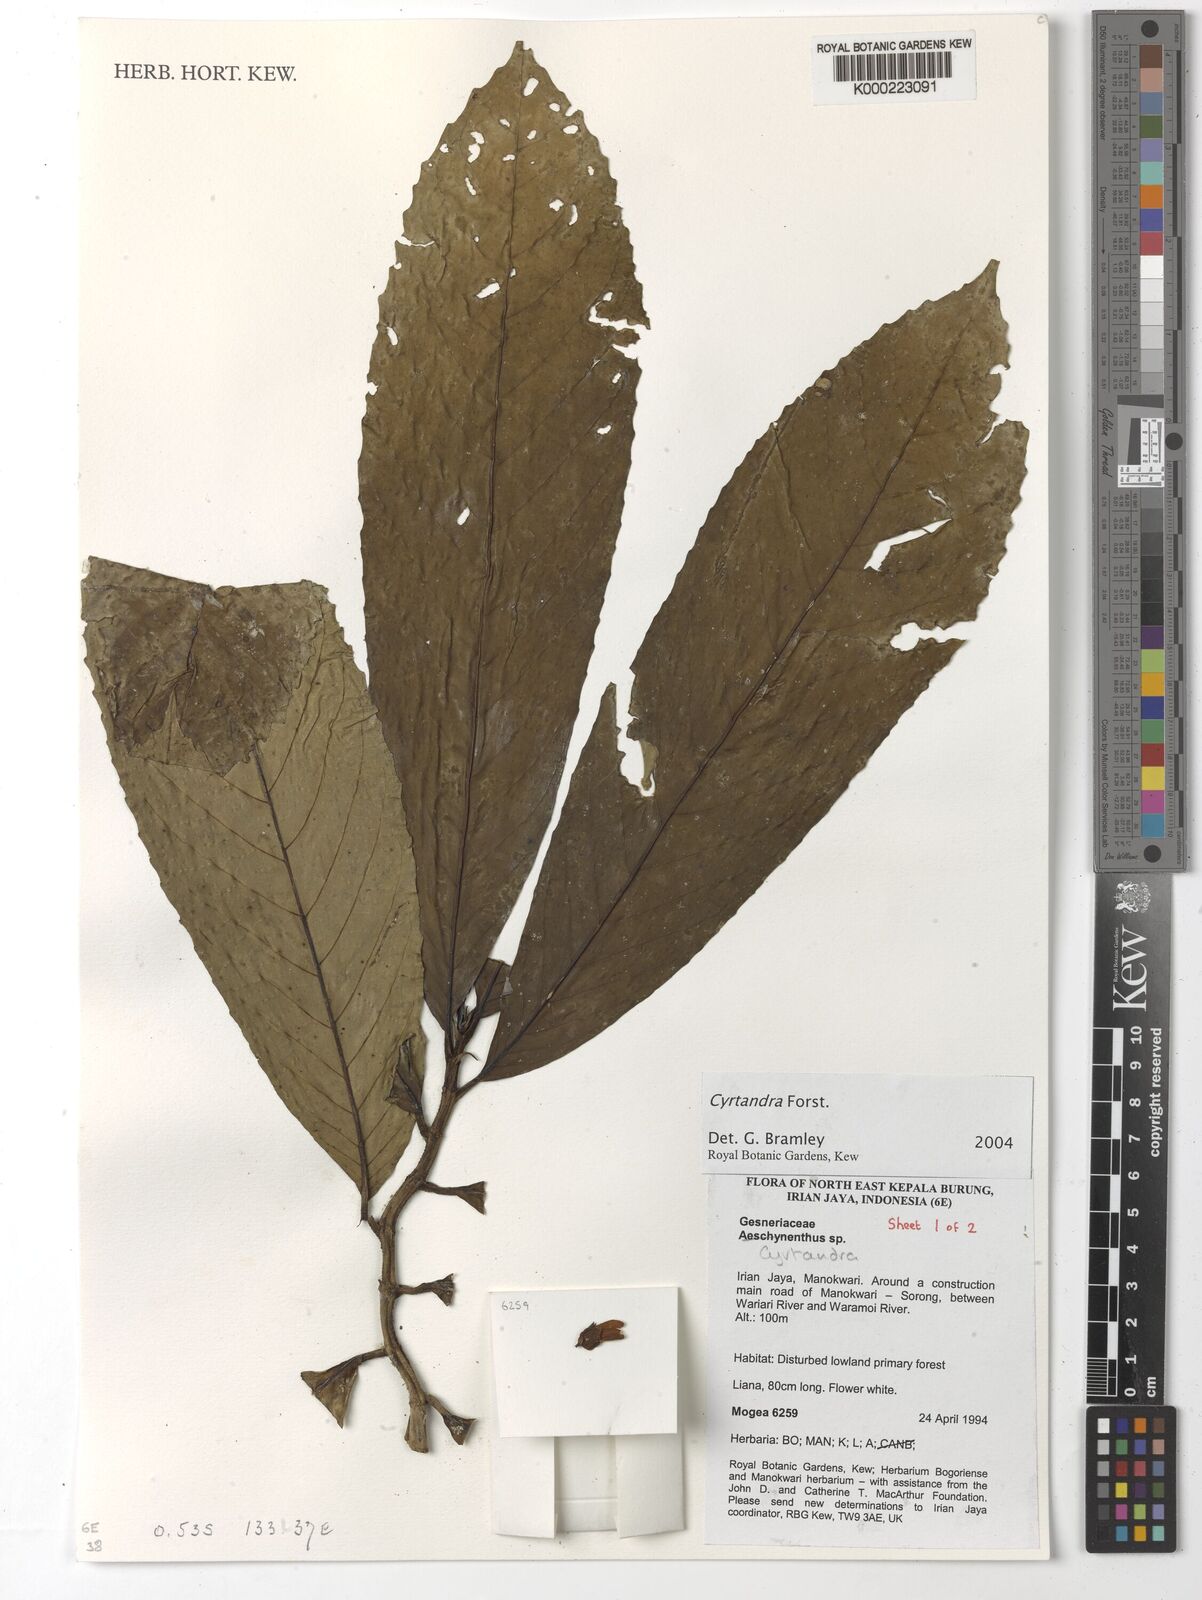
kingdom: Plantae
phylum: Tracheophyta
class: Magnoliopsida
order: Lamiales
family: Gesneriaceae
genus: Cyrtandra
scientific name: Cyrtandra
